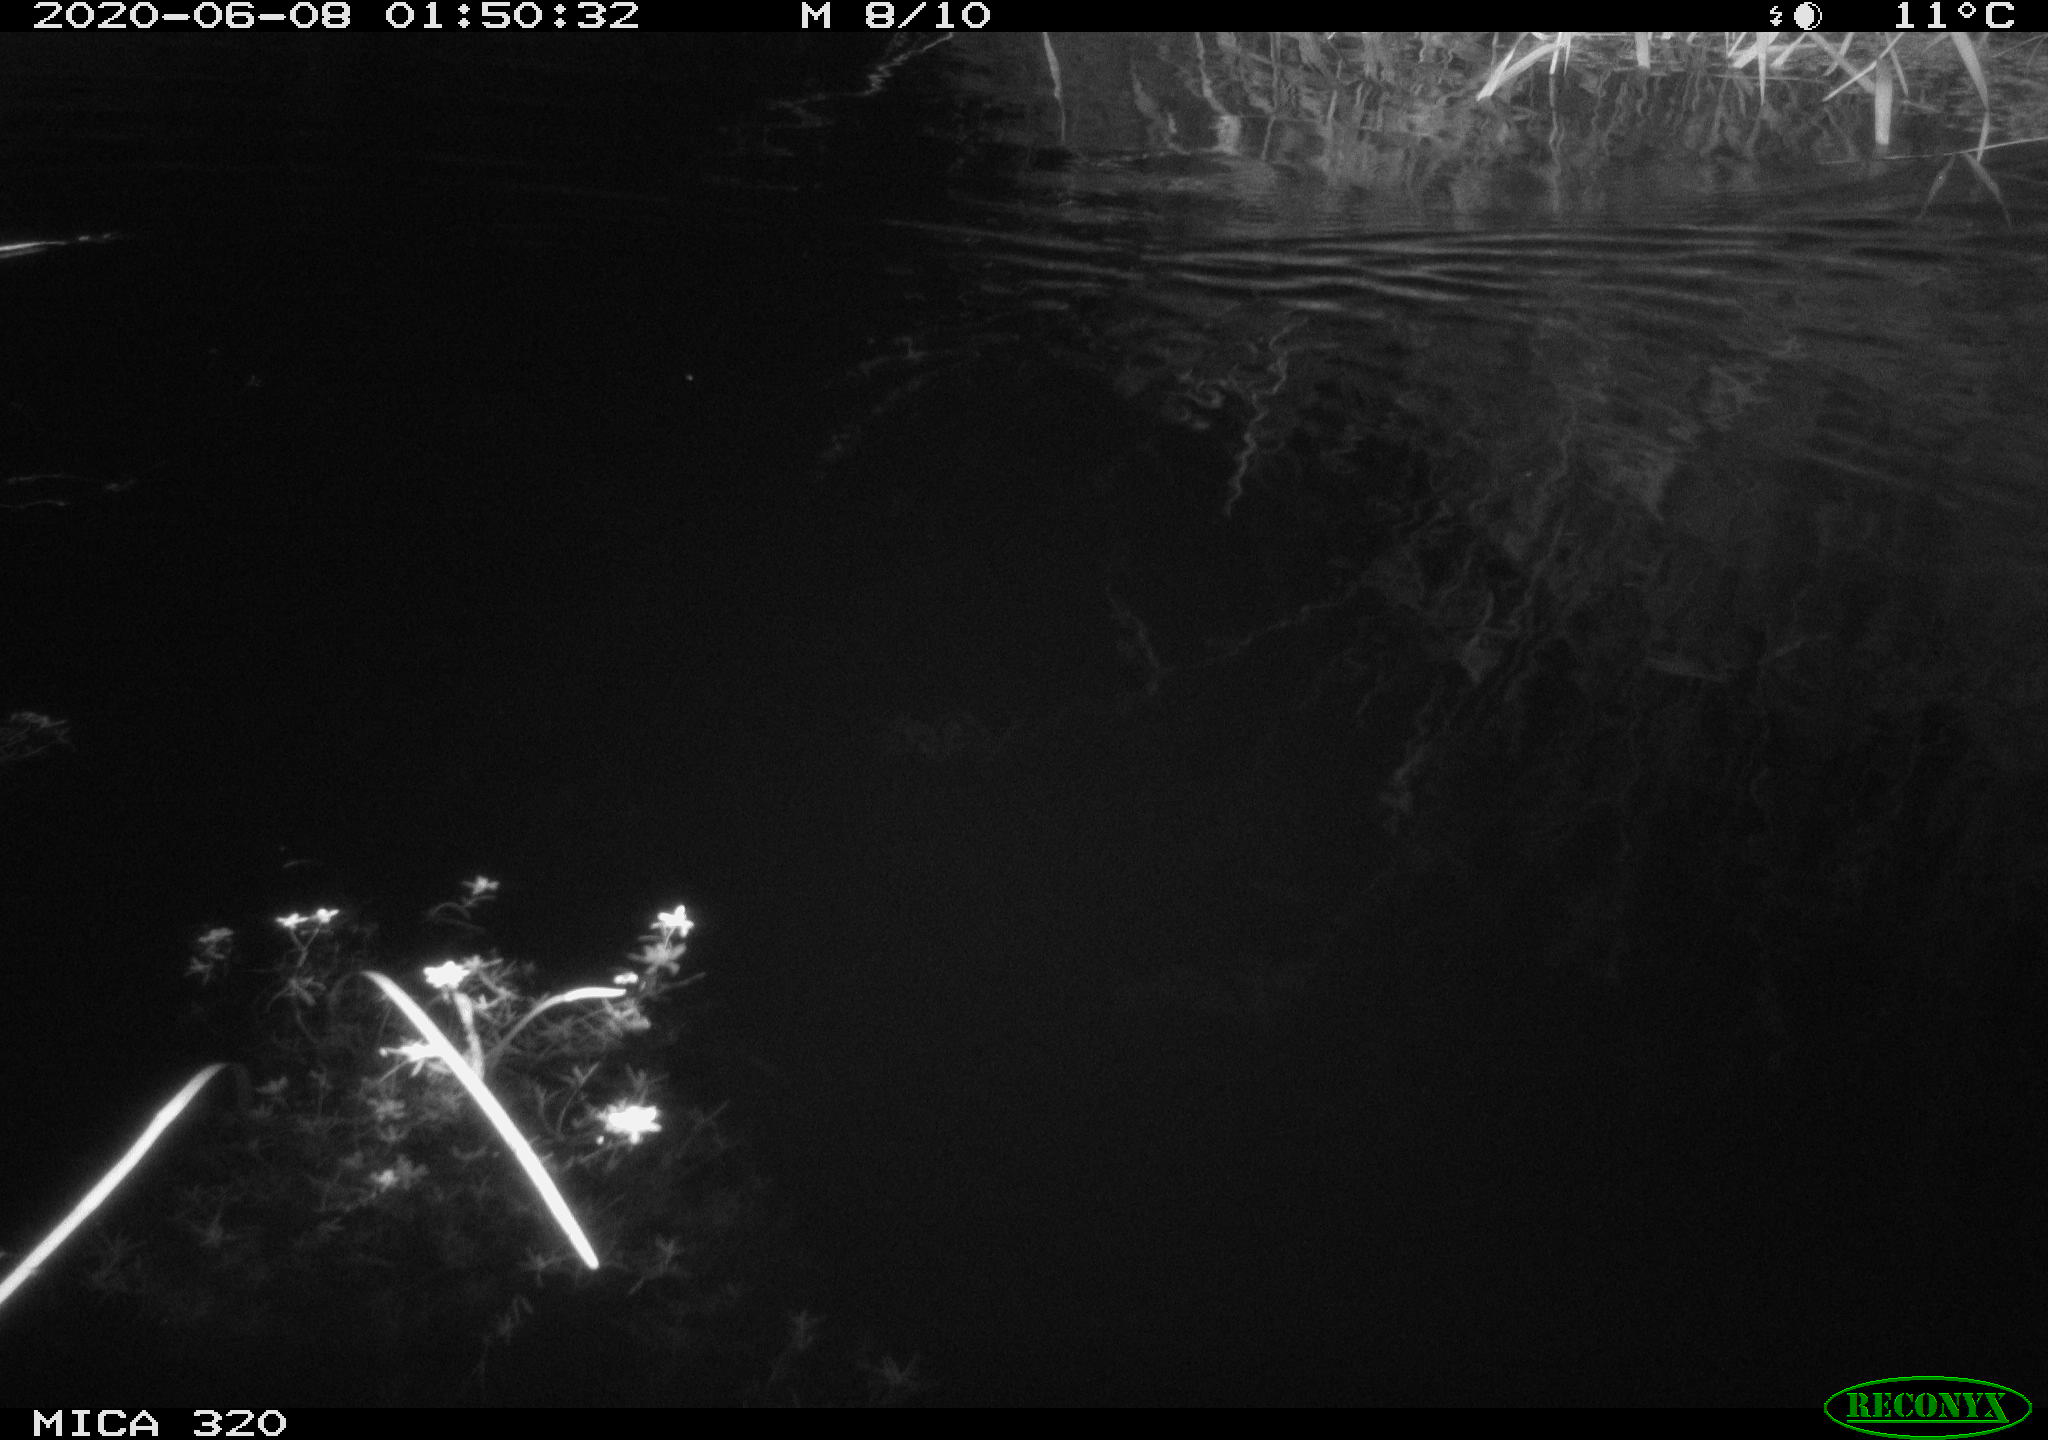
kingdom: Animalia
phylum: Chordata
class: Aves
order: Anseriformes
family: Anatidae
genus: Anas
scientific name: Anas platyrhynchos
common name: Mallard
